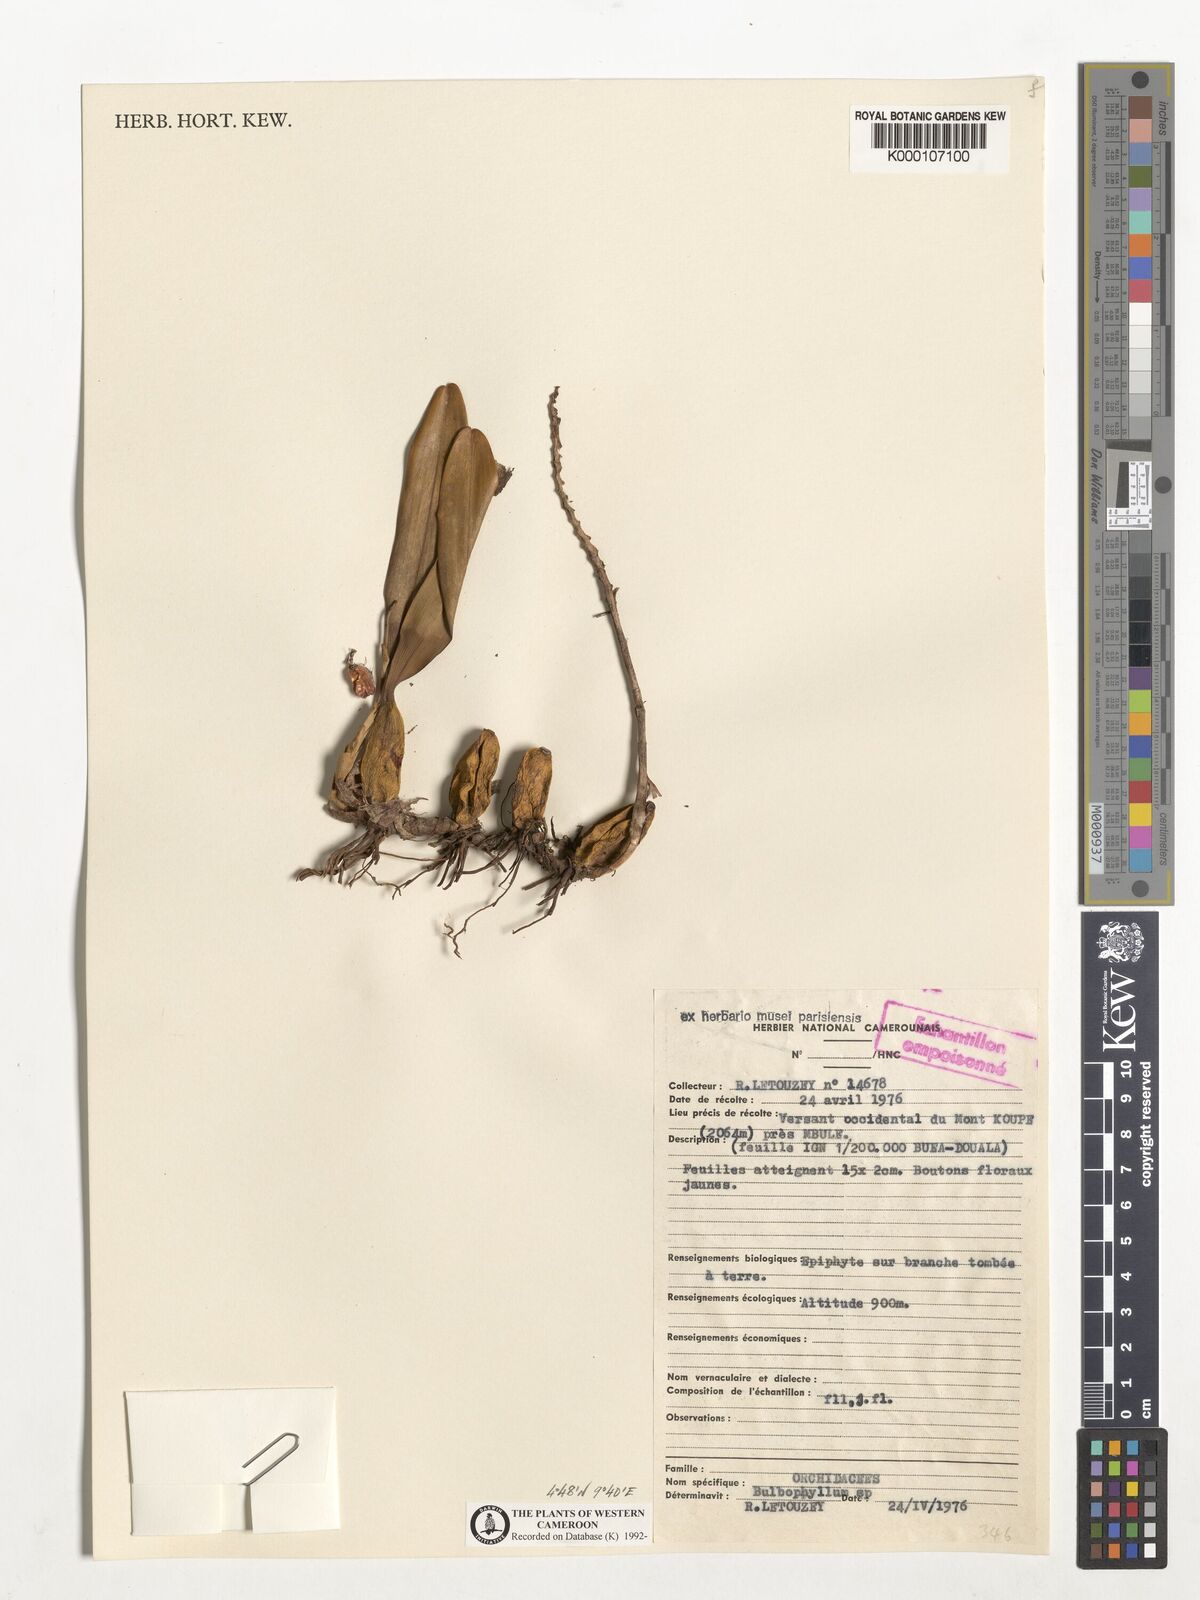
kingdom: Plantae
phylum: Tracheophyta
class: Liliopsida
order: Asparagales
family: Orchidaceae
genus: Bulbophyllum
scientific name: Bulbophyllum sandersonii
